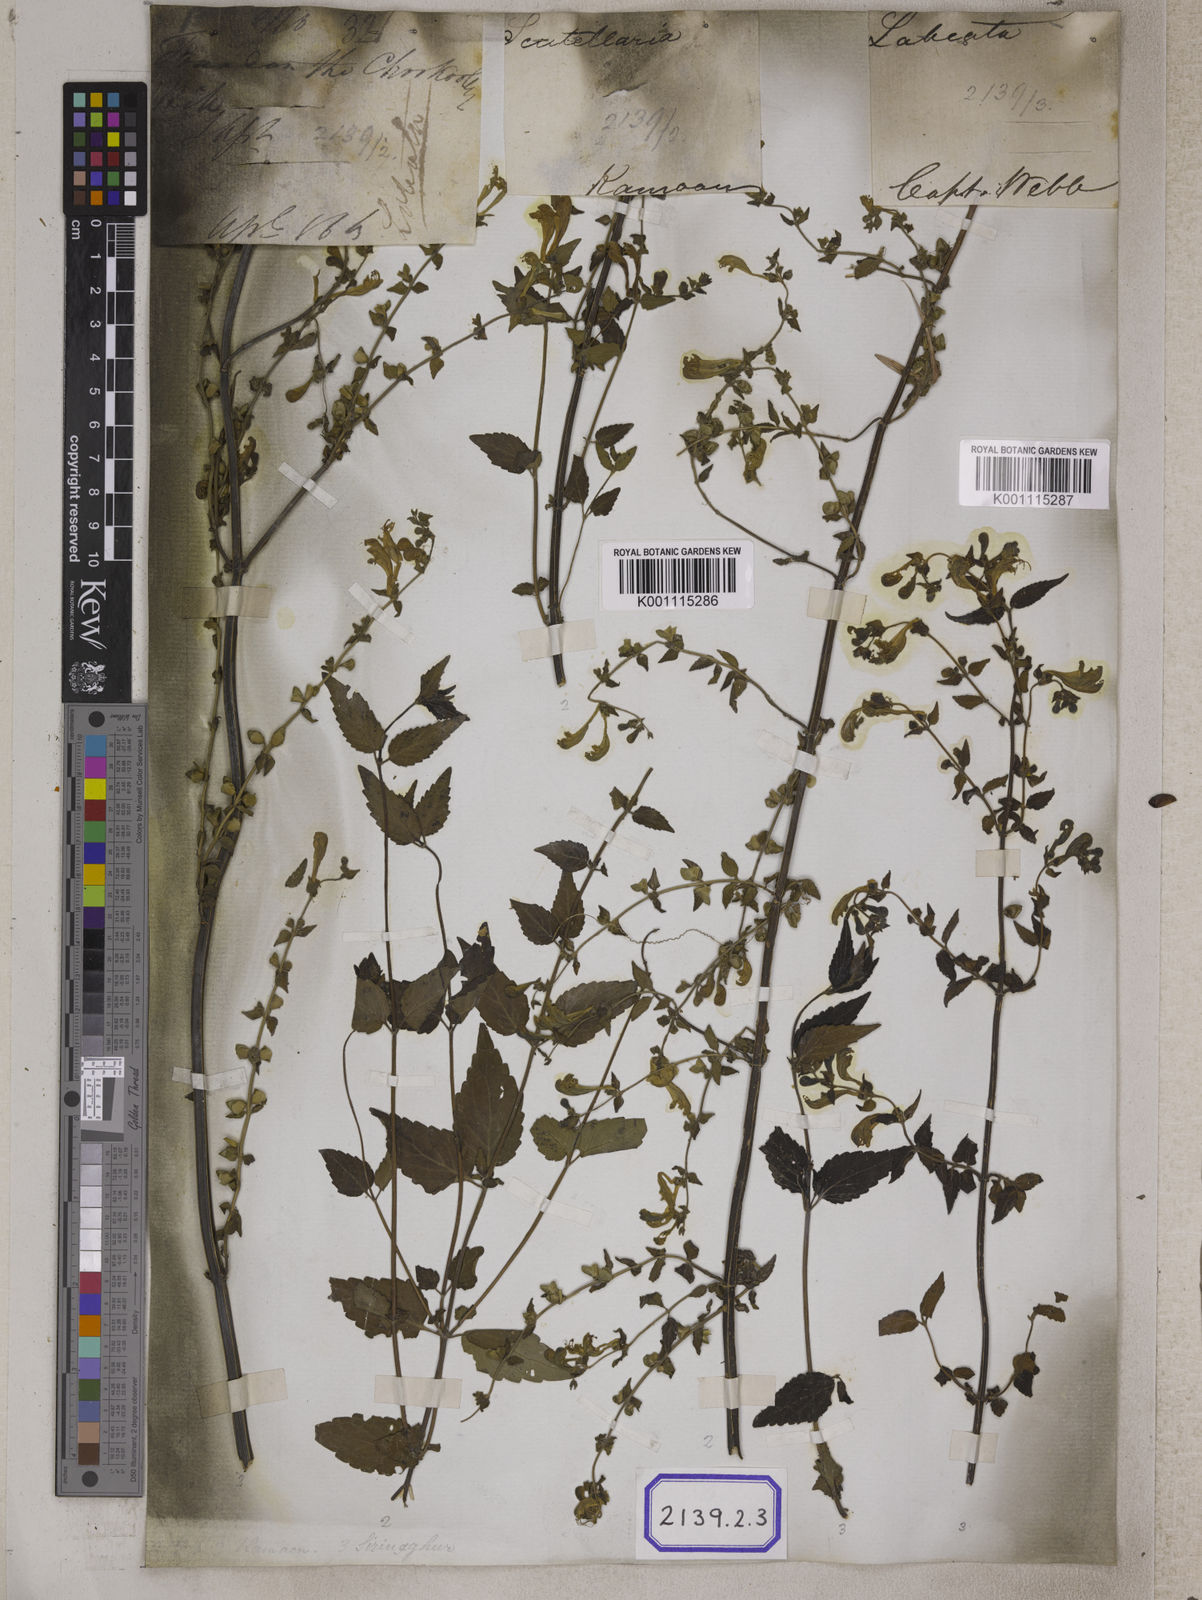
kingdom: Plantae
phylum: Tracheophyta
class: Magnoliopsida
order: Lamiales
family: Lamiaceae
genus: Scutellaria
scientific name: Scutellaria scandens
